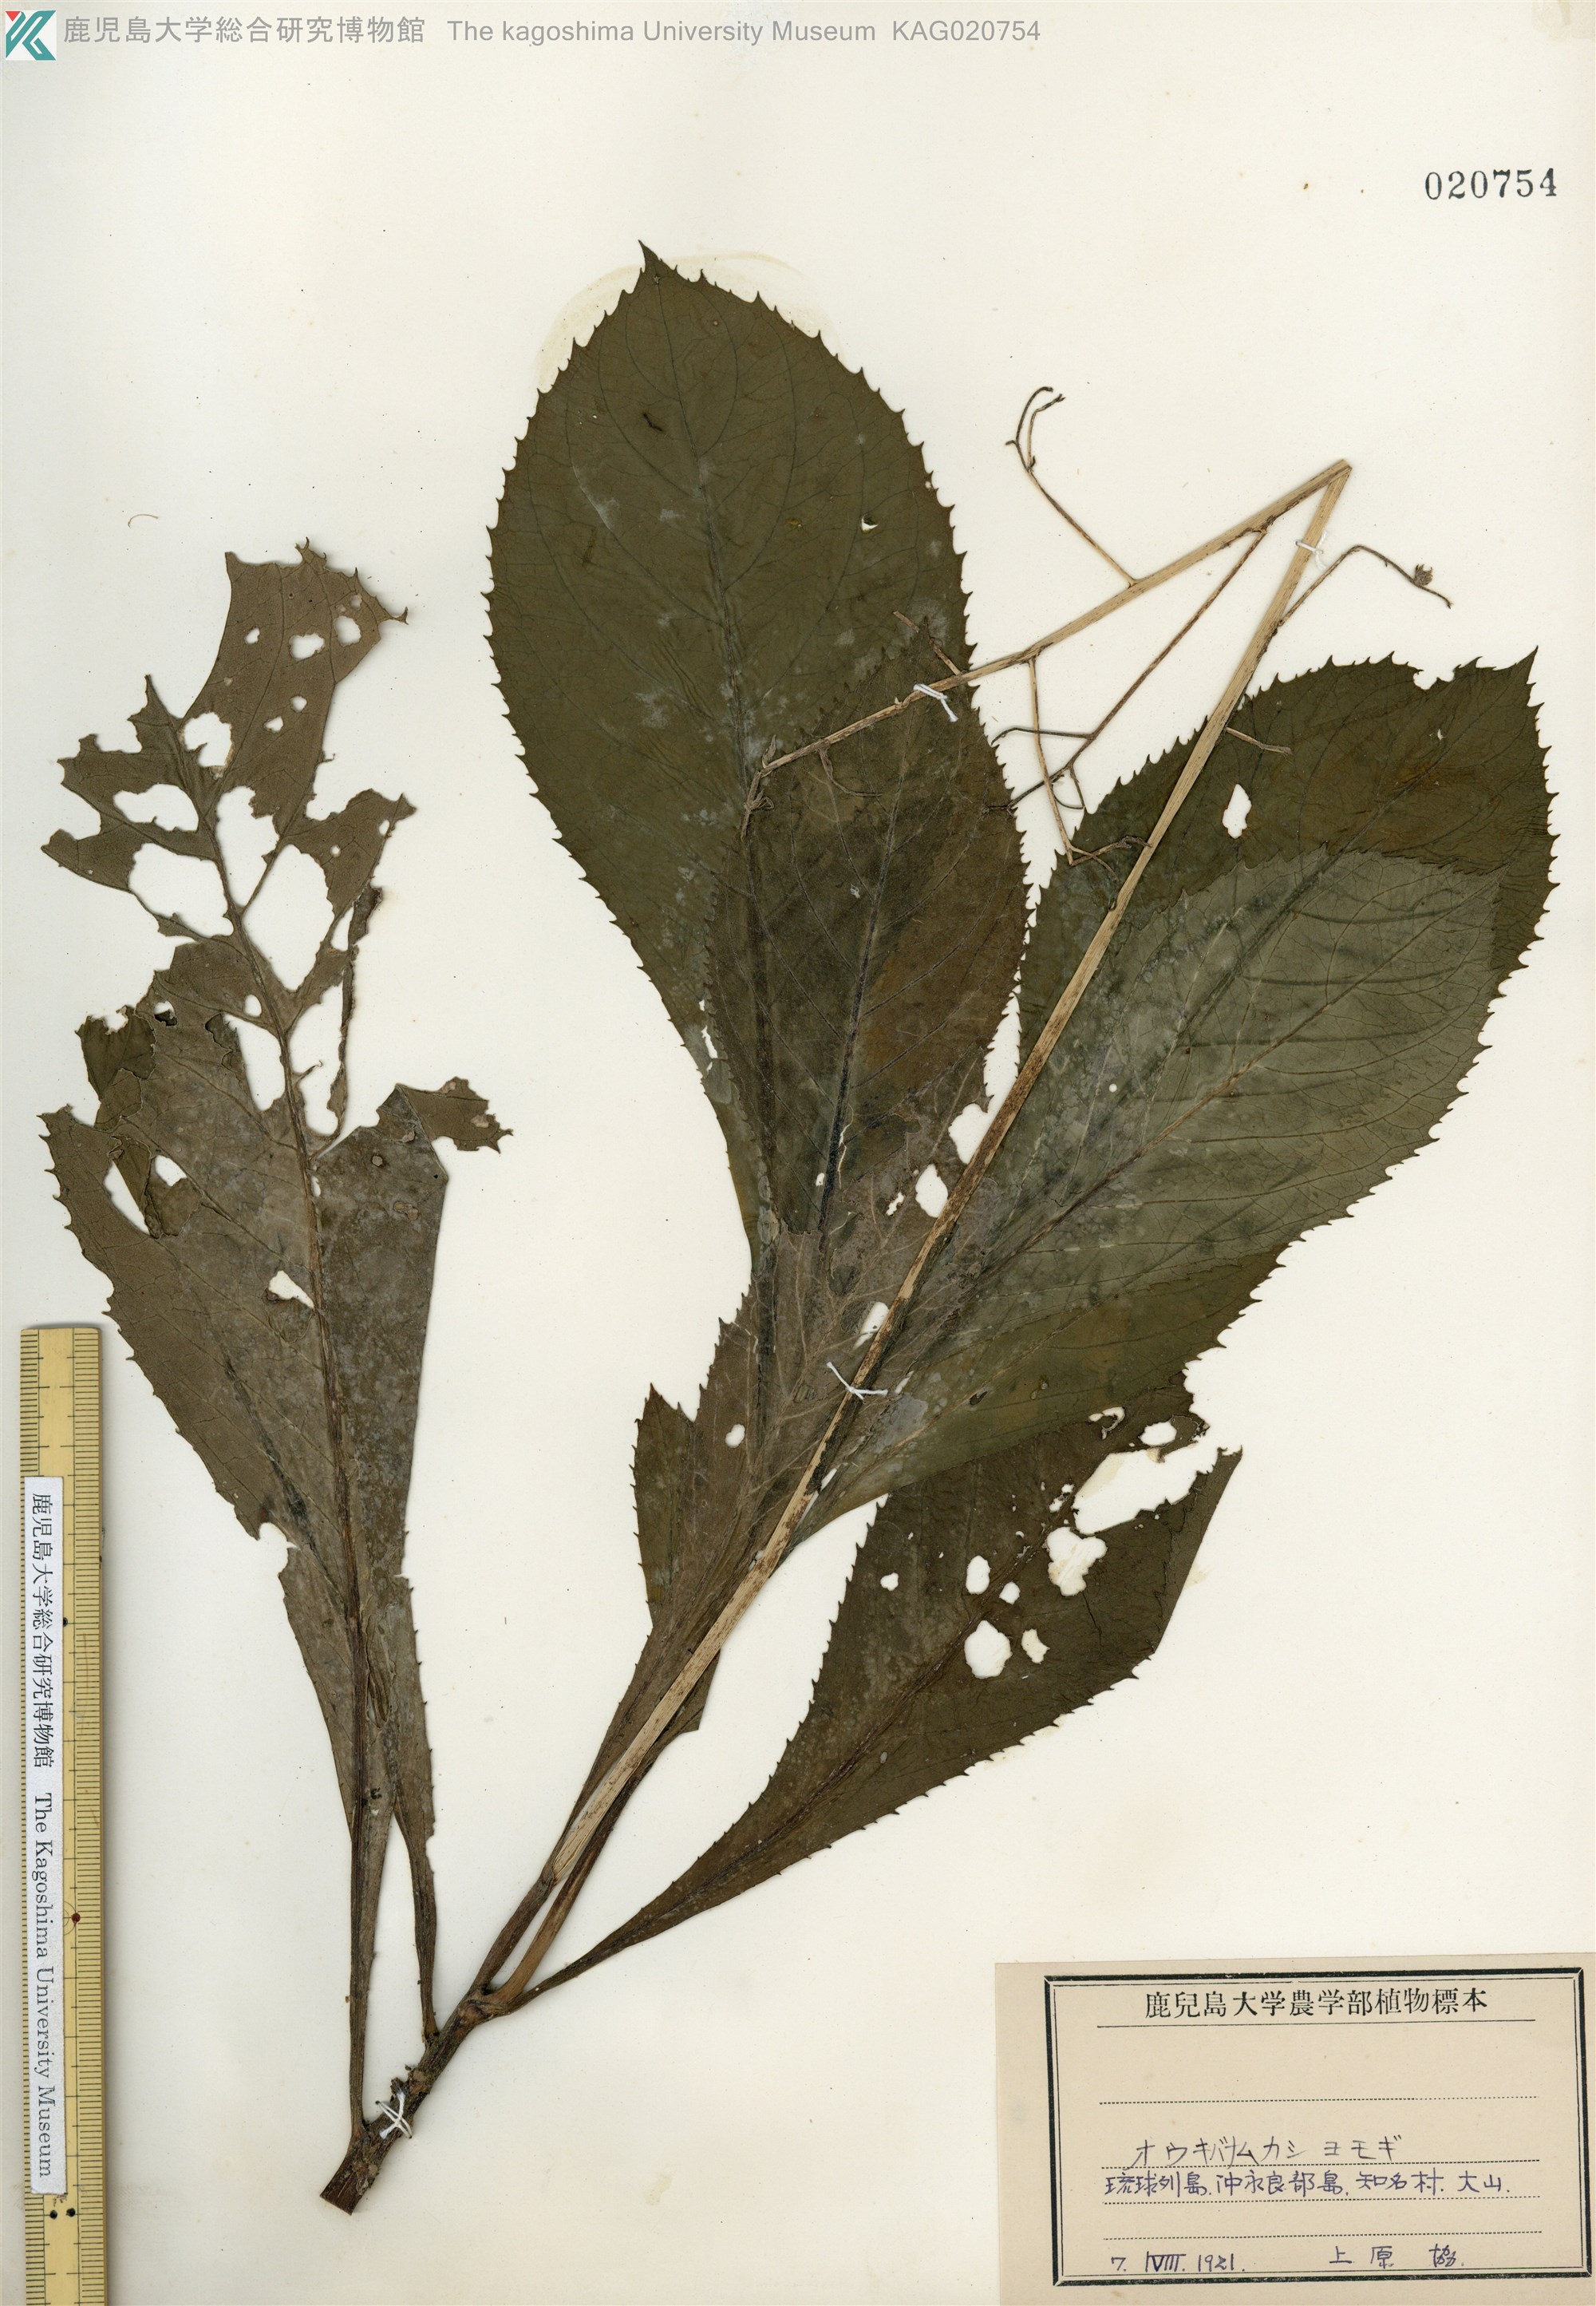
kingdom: Plantae
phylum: Tracheophyta
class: Magnoliopsida
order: Asterales
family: Asteraceae
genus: Blumea
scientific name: Blumea conspicua
